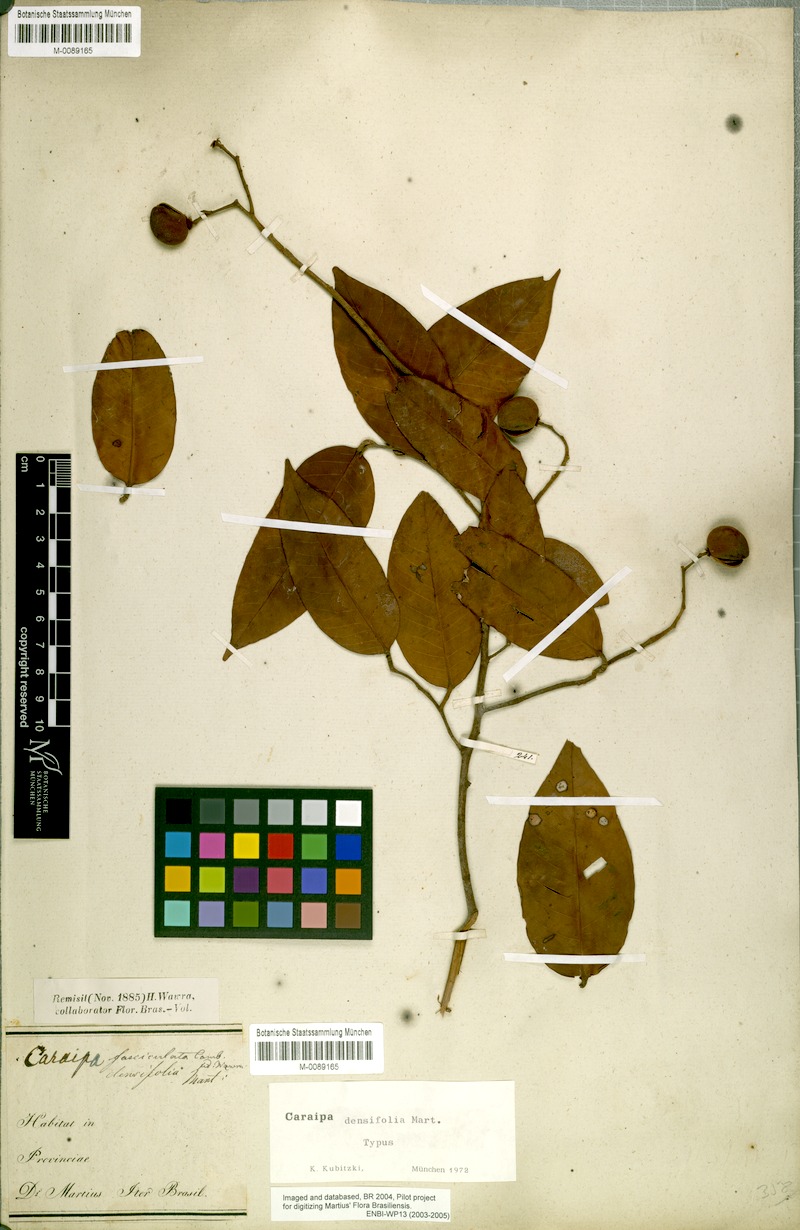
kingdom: Plantae
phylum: Tracheophyta
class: Magnoliopsida
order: Malpighiales
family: Calophyllaceae
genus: Caraipa
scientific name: Caraipa densifolia
